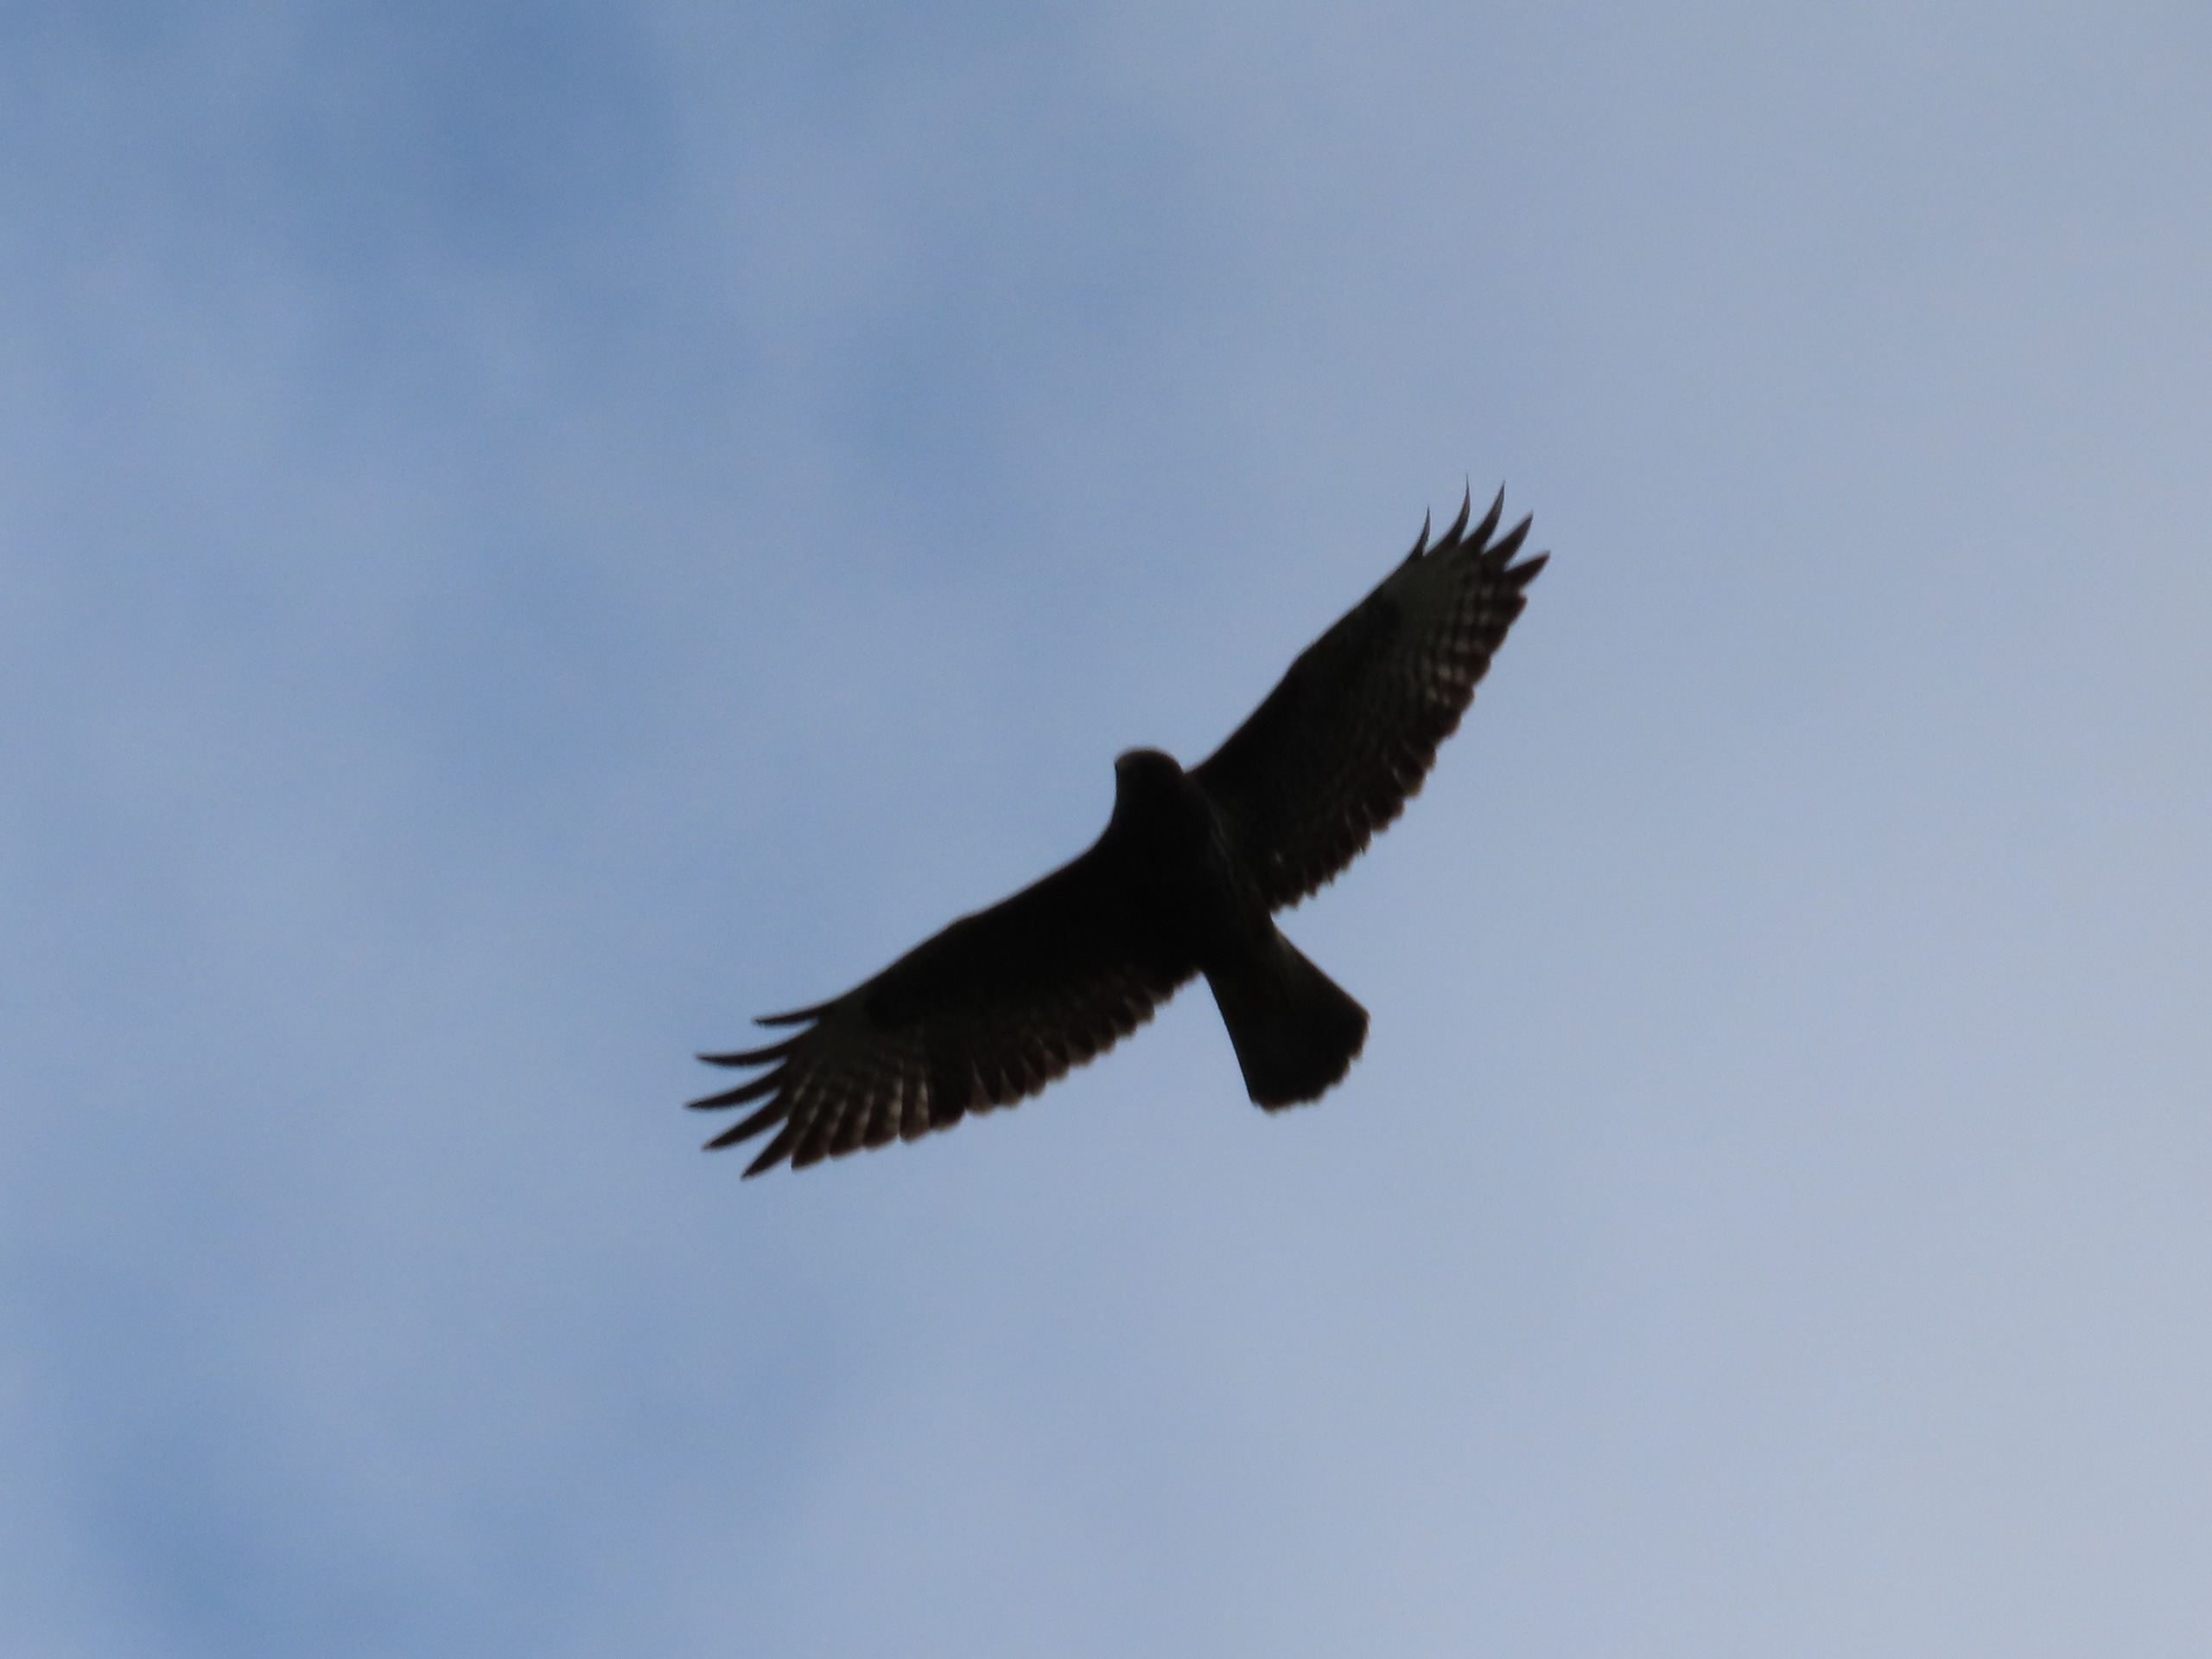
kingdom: Animalia
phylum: Chordata
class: Aves
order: Accipitriformes
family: Accipitridae
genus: Buteo
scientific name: Buteo buteo
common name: Musvåge
